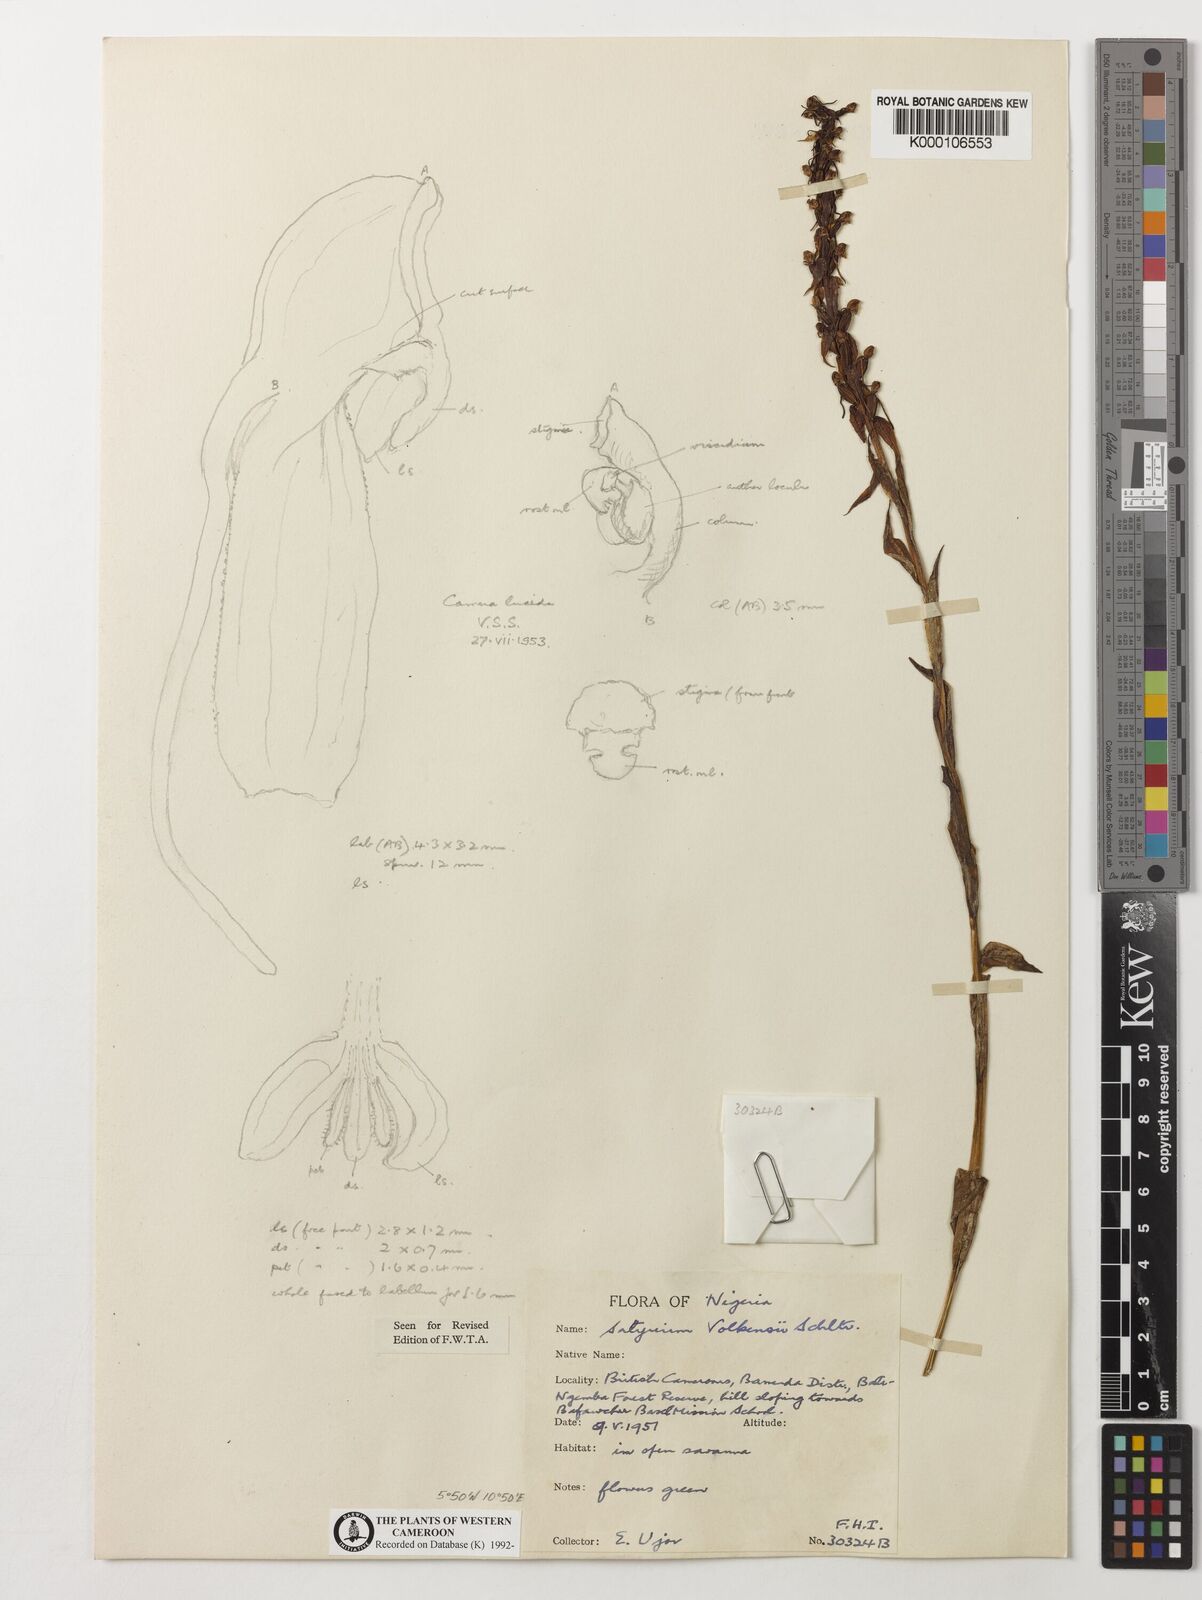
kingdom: Plantae
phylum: Tracheophyta
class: Liliopsida
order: Asparagales
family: Orchidaceae
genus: Satyrium
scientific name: Satyrium volkensii
